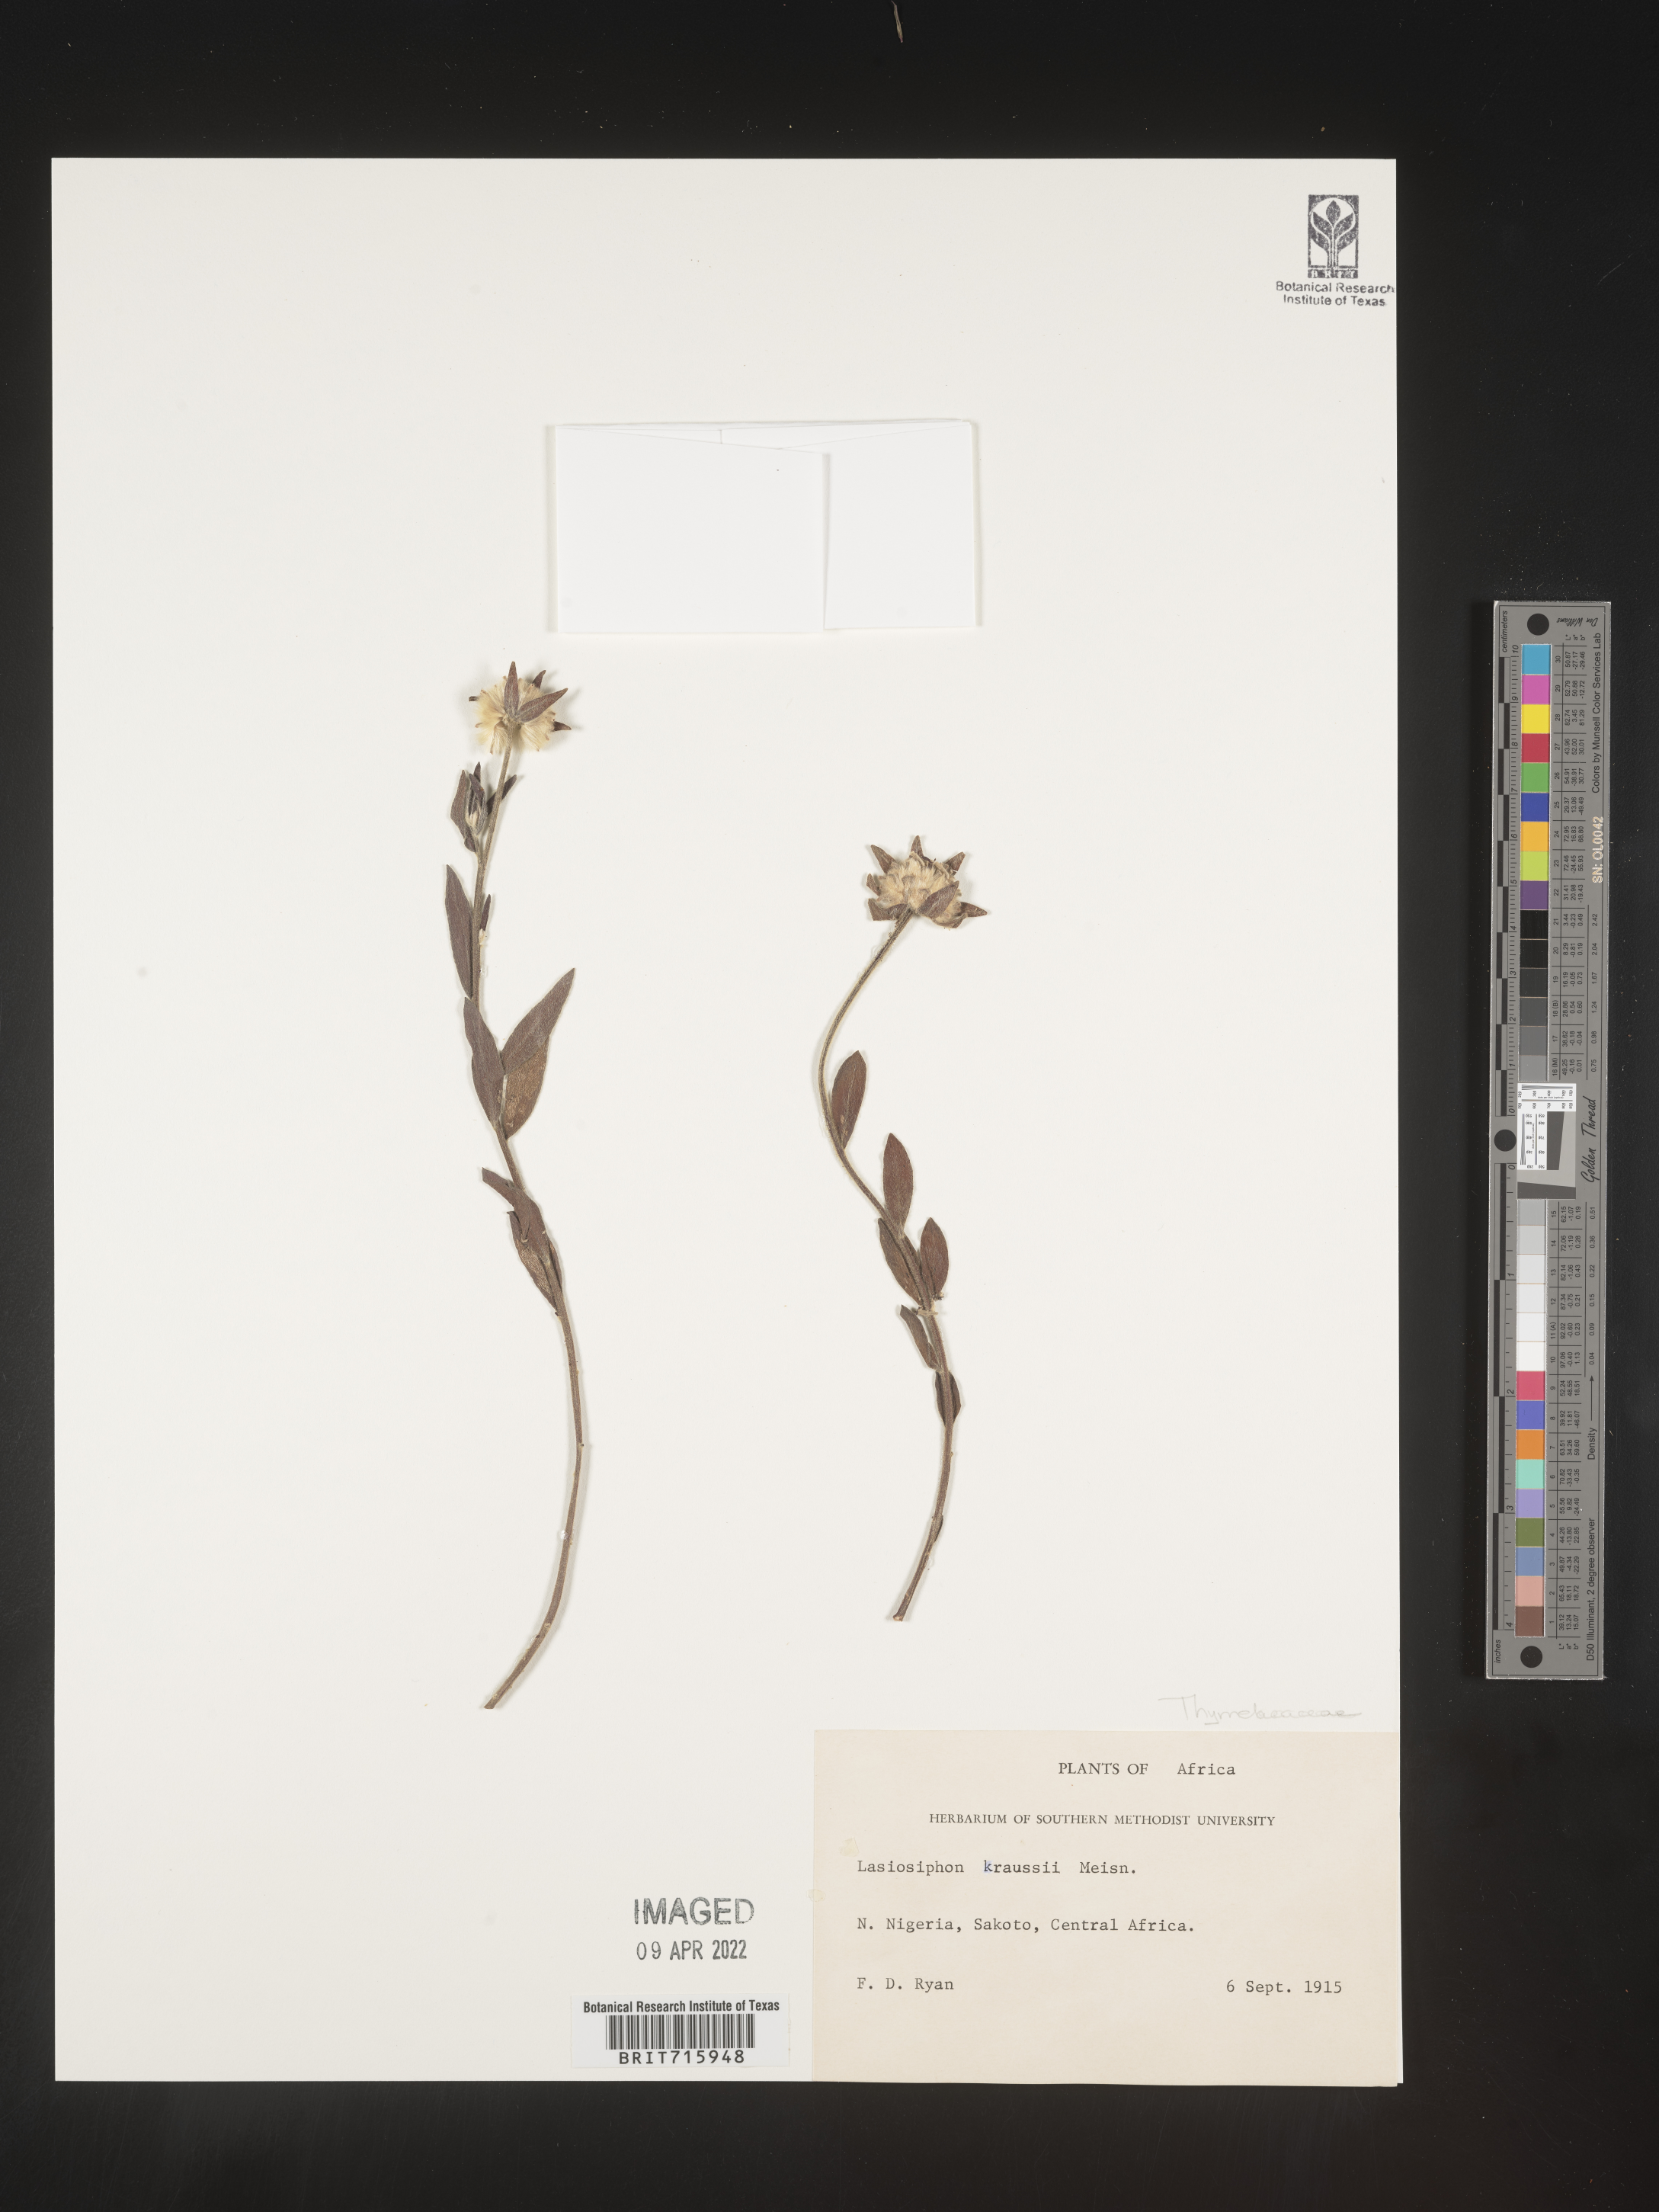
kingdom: Plantae
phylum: Tracheophyta
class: Magnoliopsida
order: Malvales
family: Thymelaeaceae
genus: Lasiosiphon
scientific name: Lasiosiphon
